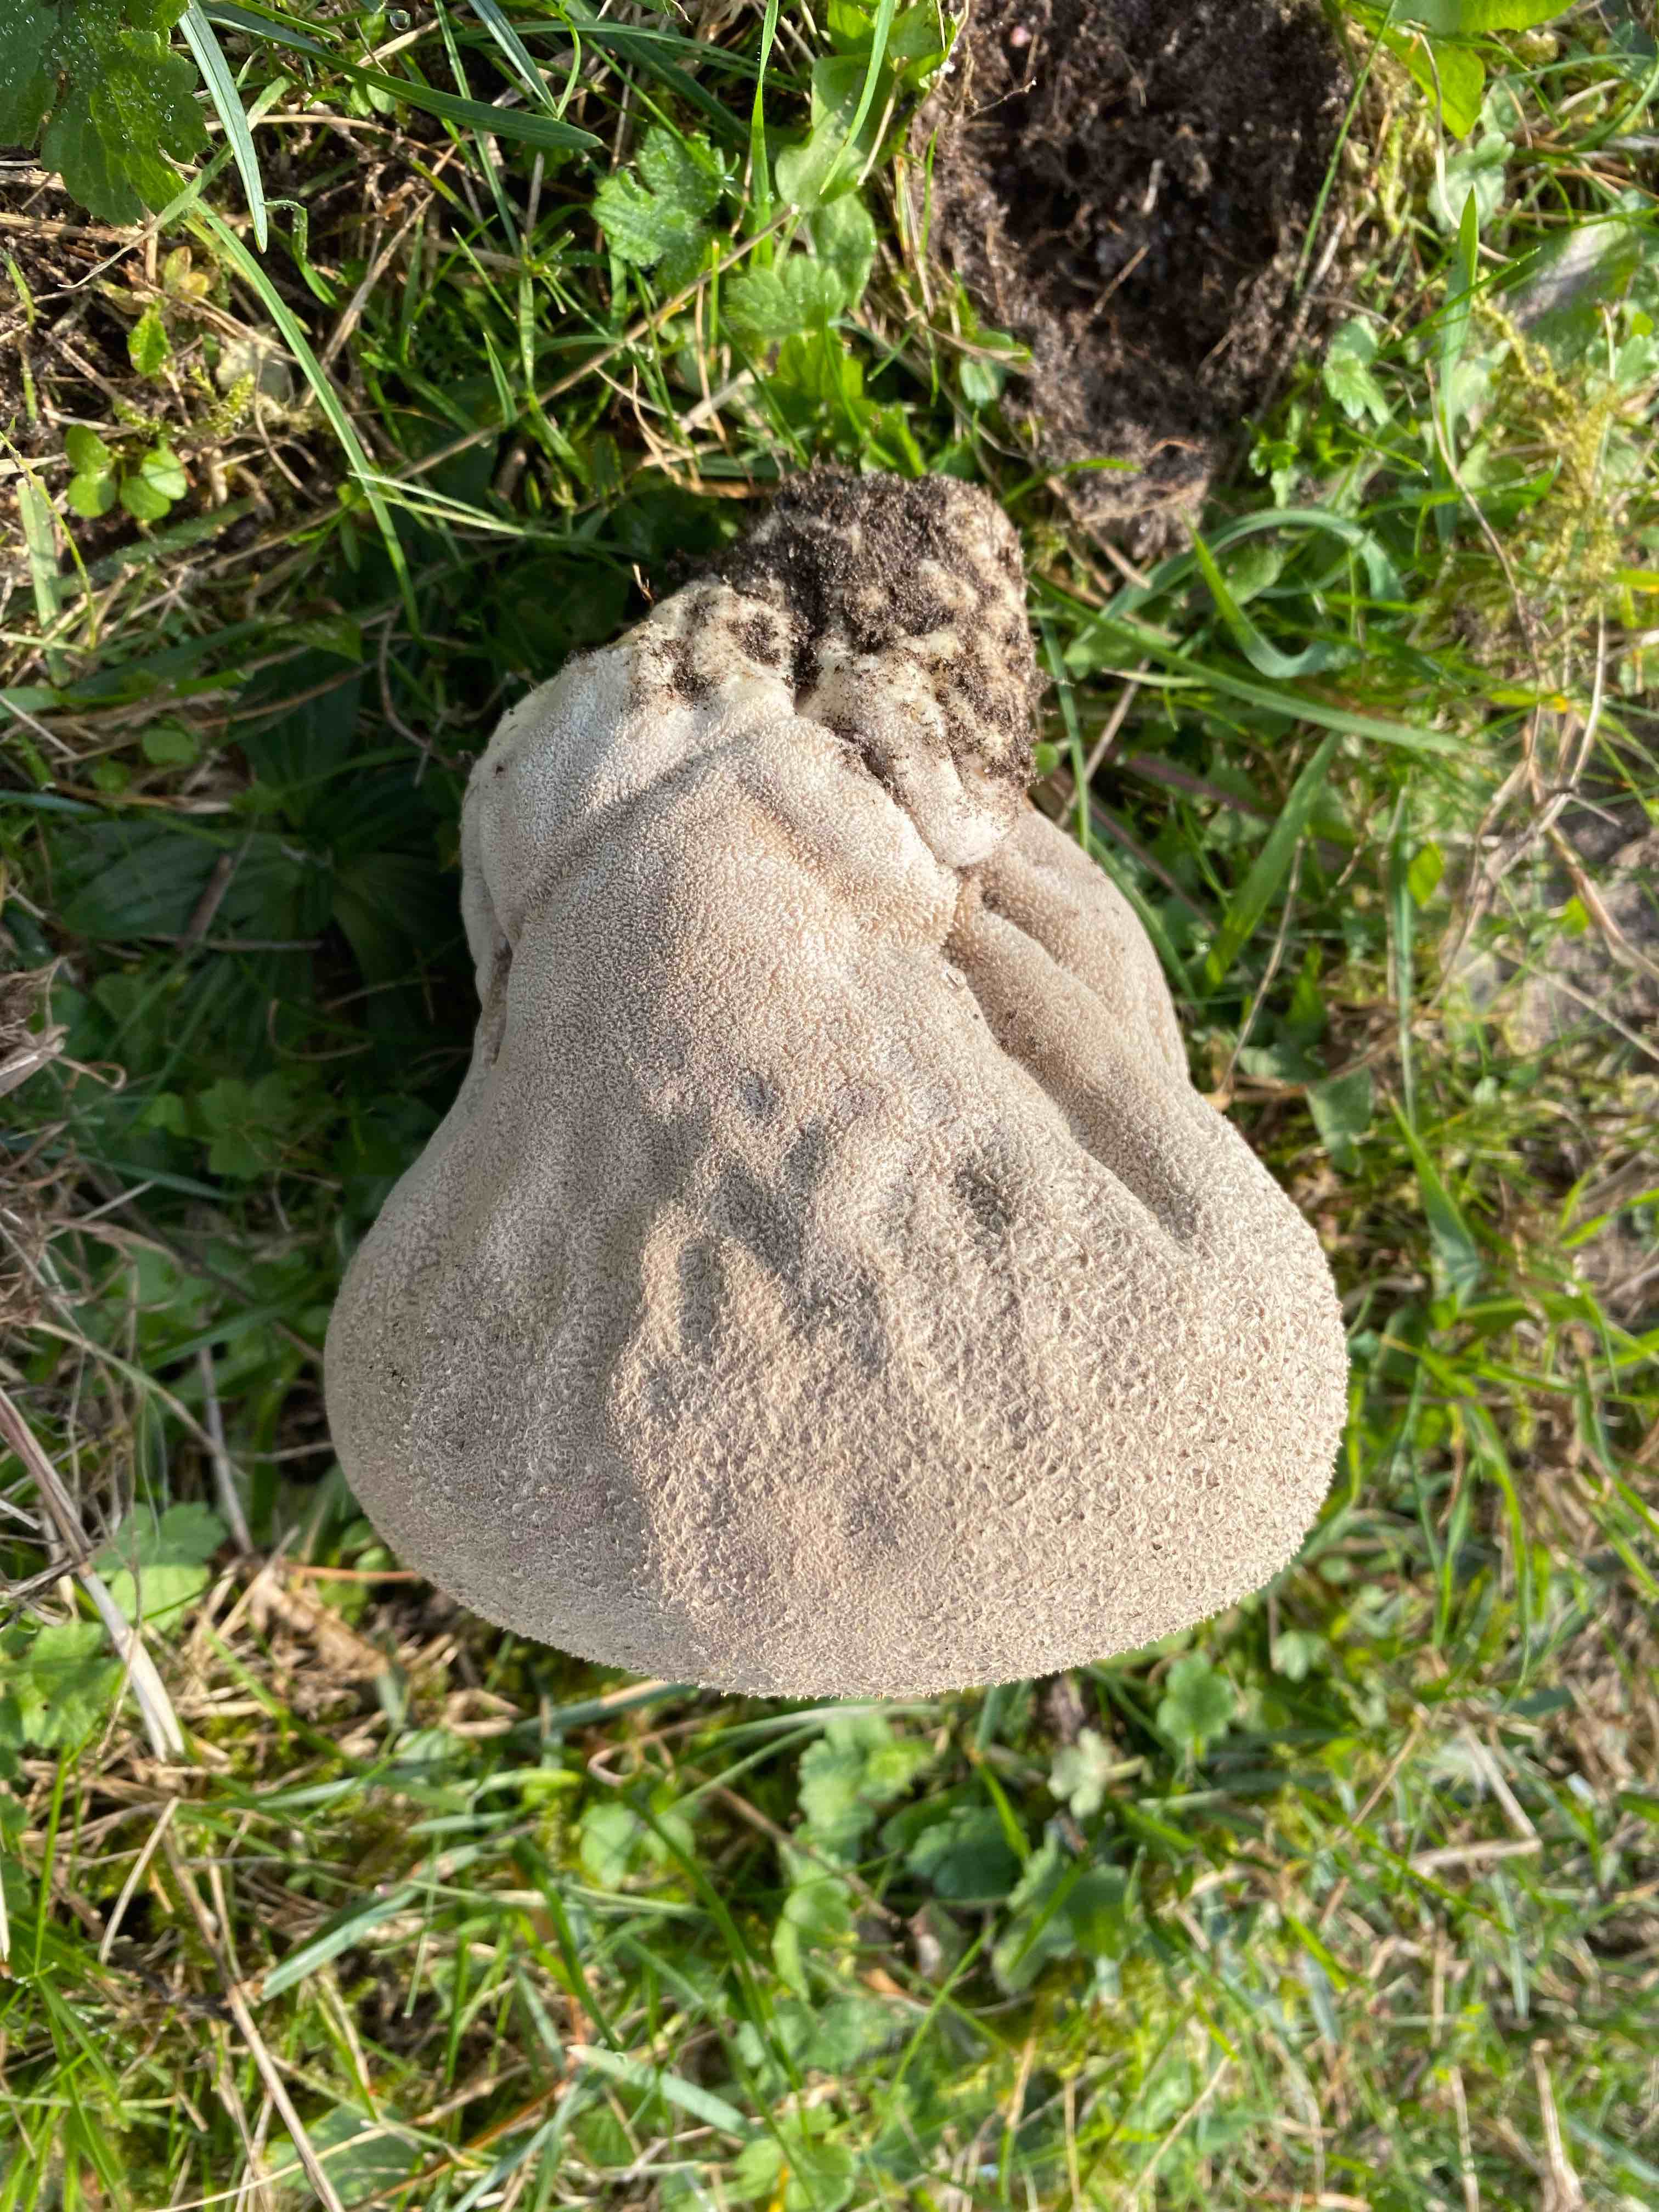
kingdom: Fungi
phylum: Basidiomycota
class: Agaricomycetes
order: Agaricales
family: Lycoperdaceae
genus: Bovistella
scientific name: Bovistella utriformis
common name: skællet støvbold
